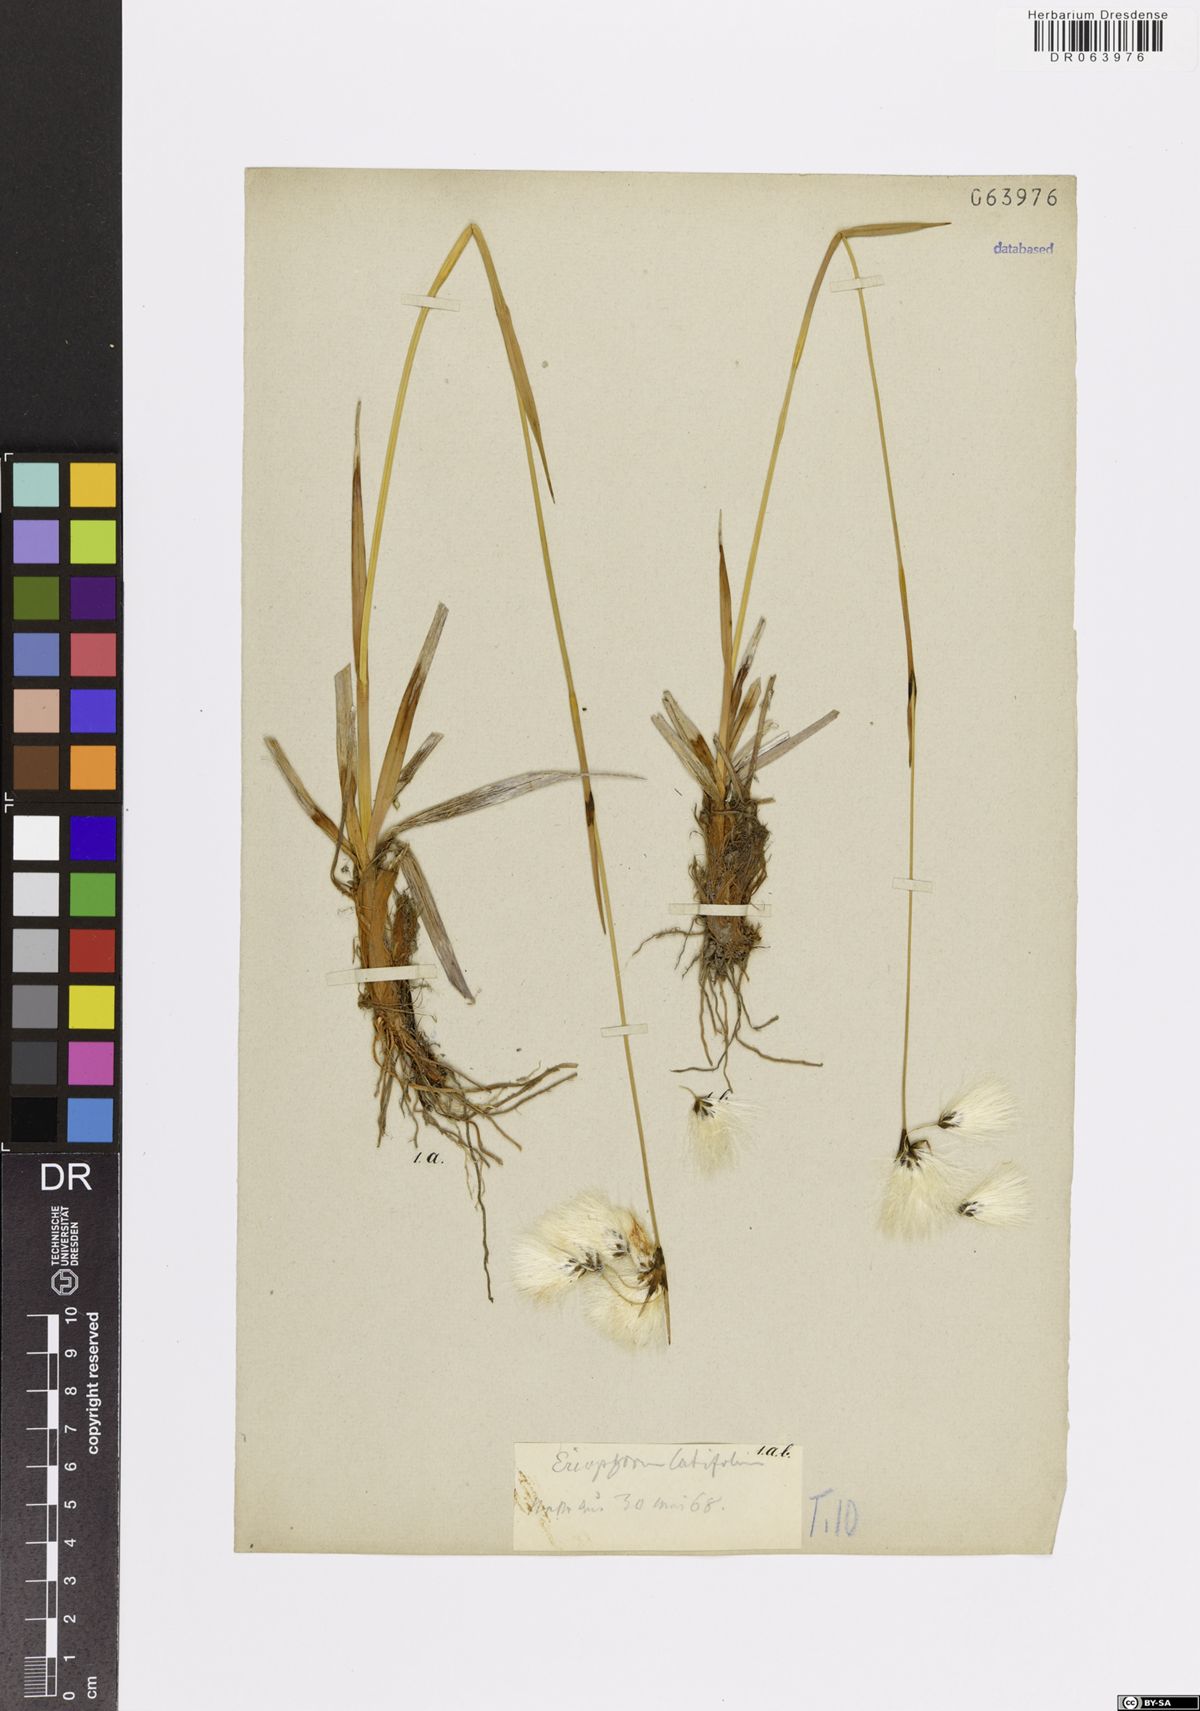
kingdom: Plantae
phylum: Tracheophyta
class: Liliopsida
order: Poales
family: Cyperaceae
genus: Eriophorum
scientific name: Eriophorum latifolium
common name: Broad-leaved cottongrass
